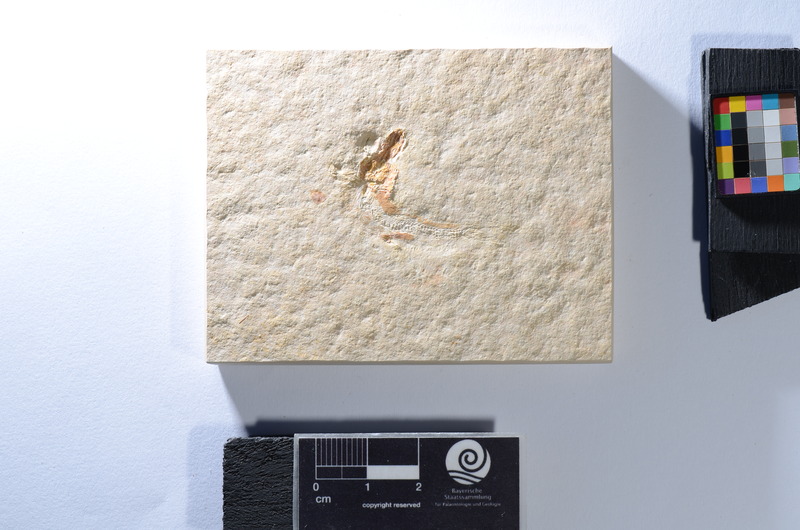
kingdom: Animalia
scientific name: Animalia
